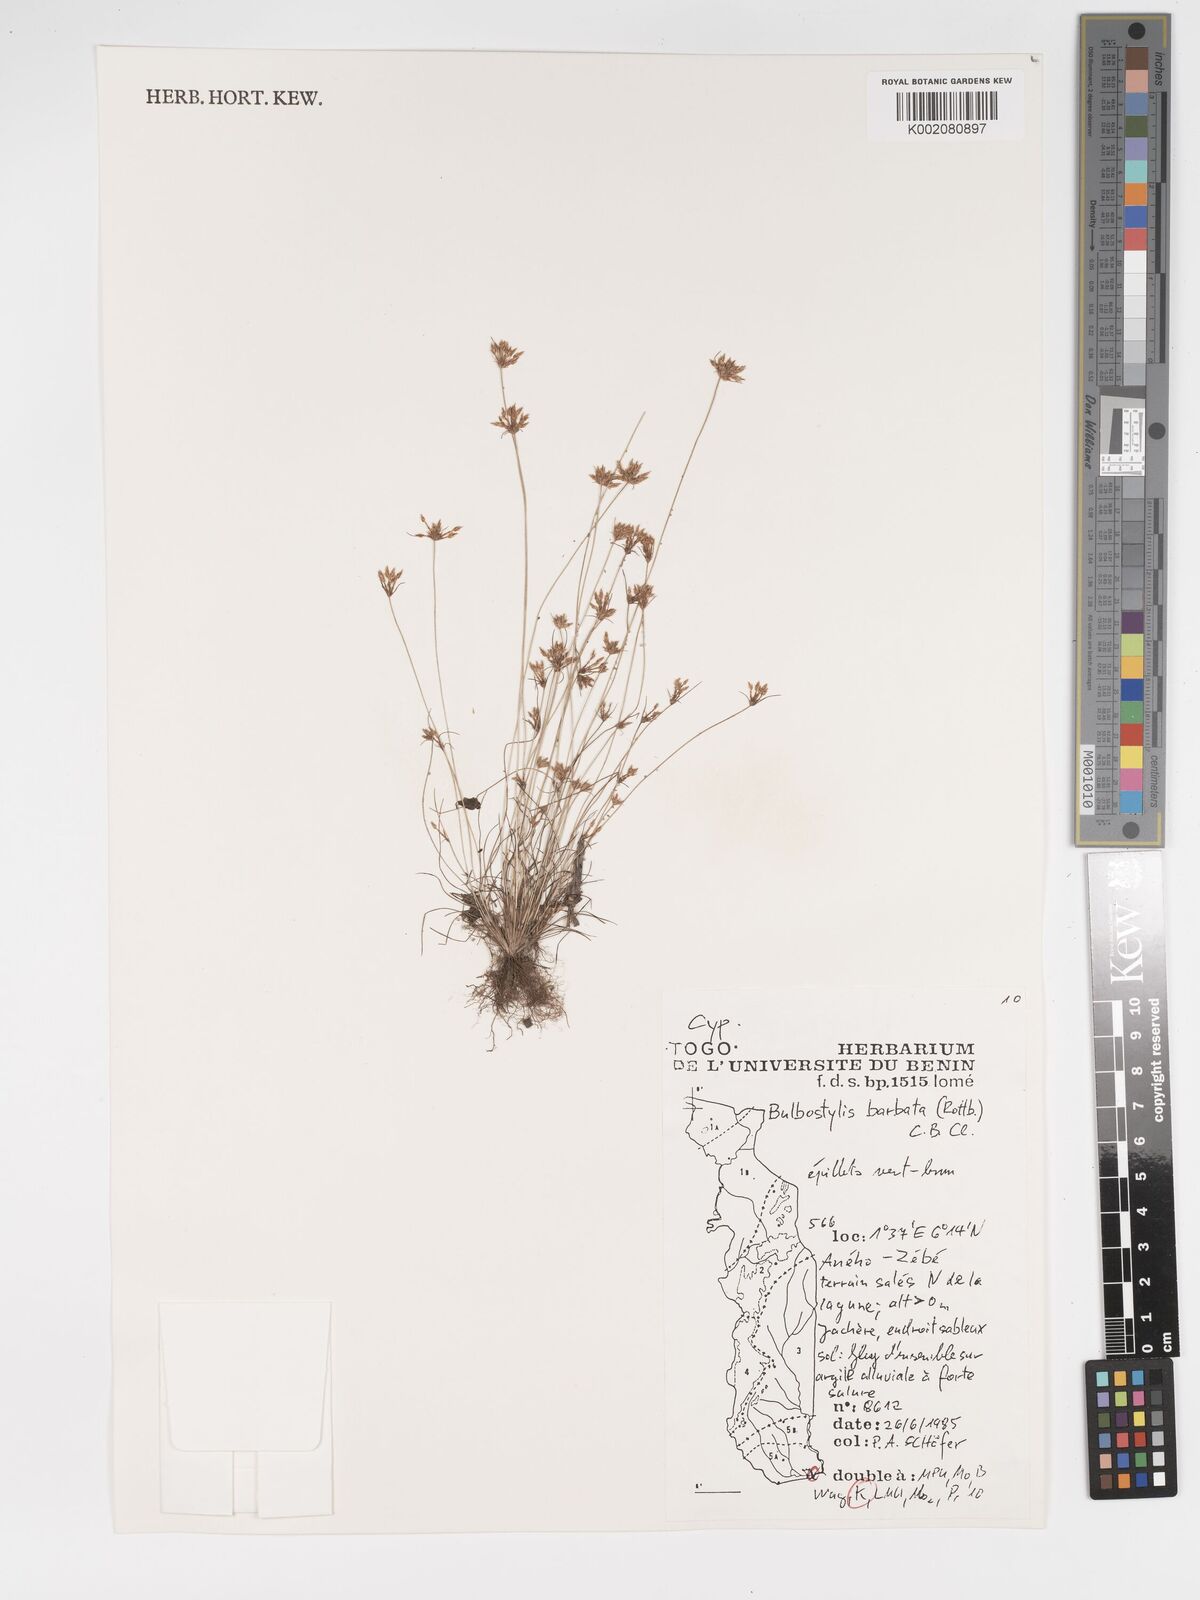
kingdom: Plantae
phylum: Tracheophyta
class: Liliopsida
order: Poales
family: Cyperaceae
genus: Bulbostylis
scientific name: Bulbostylis barbata
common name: Watergrass
